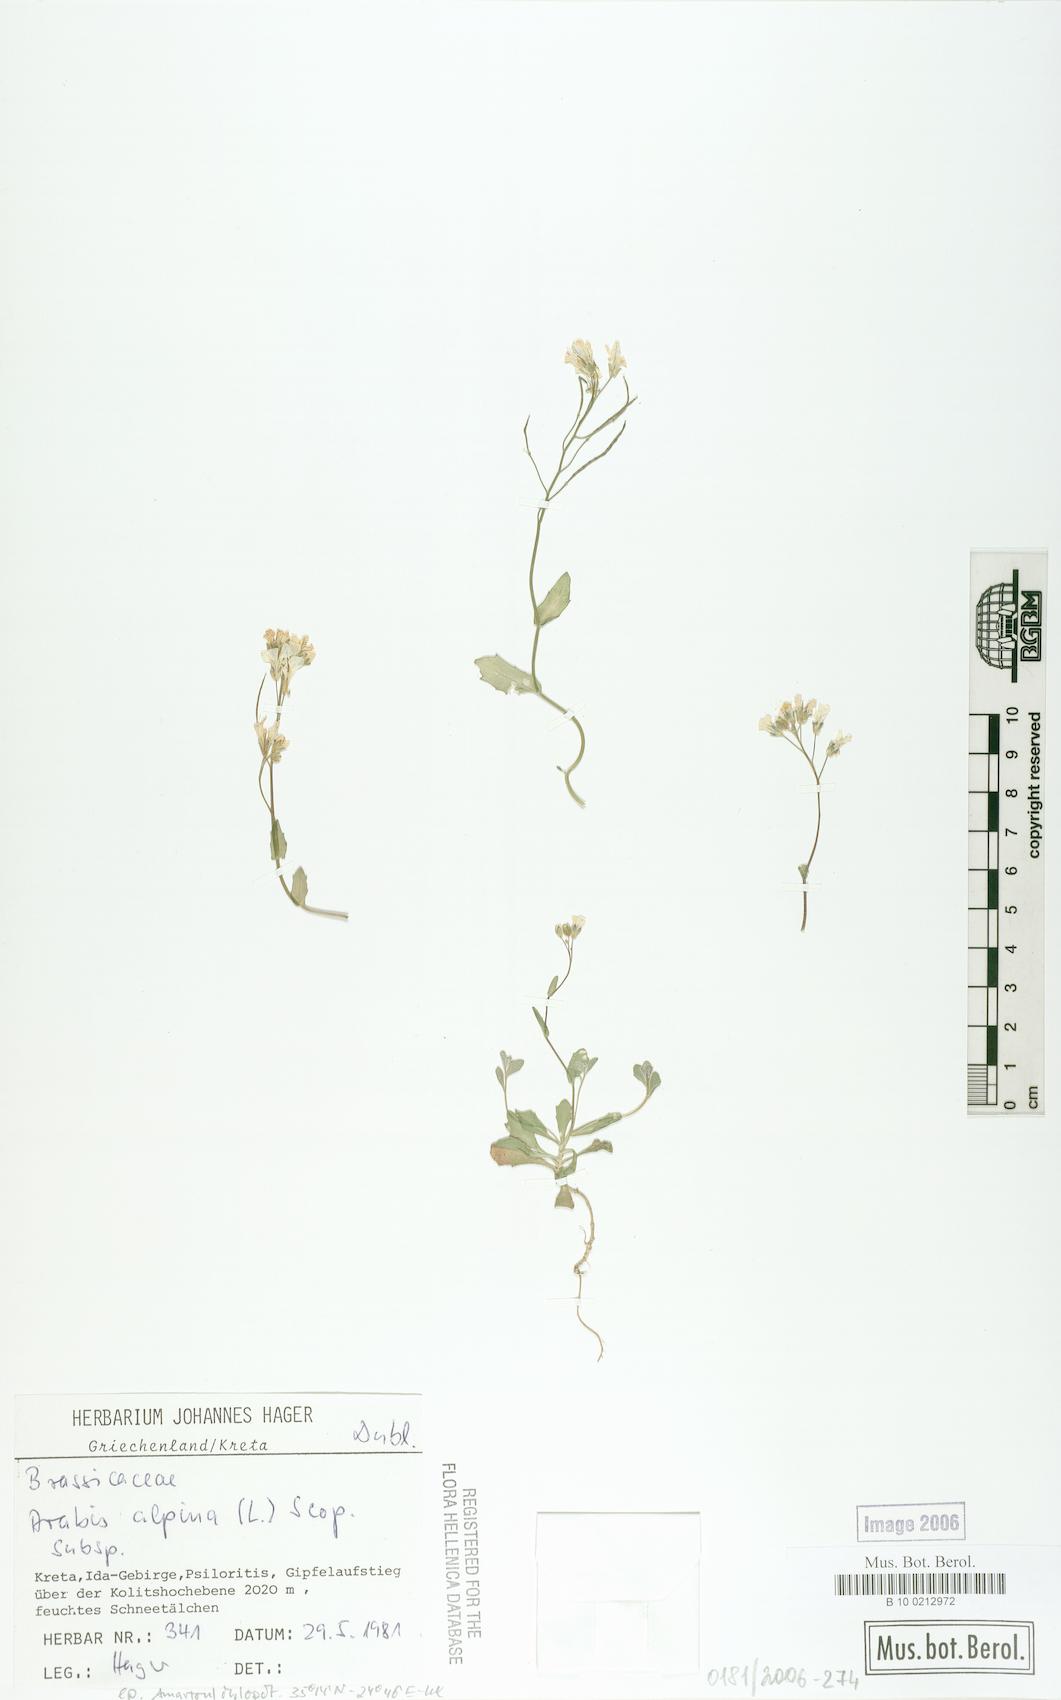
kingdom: Plantae
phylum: Tracheophyta
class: Magnoliopsida
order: Brassicales
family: Brassicaceae
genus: Arabis
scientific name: Arabis alpina
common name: Alpine rock-cress
